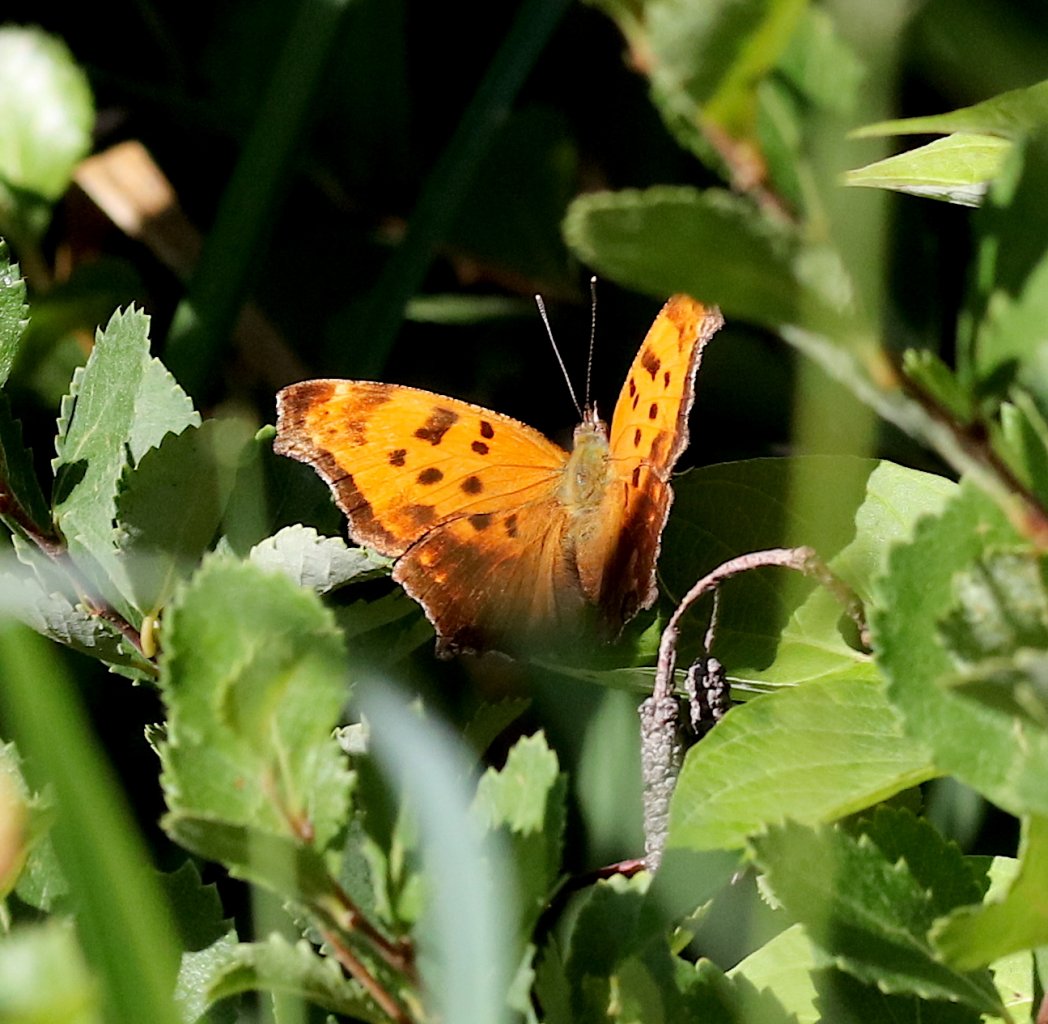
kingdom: Animalia
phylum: Arthropoda
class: Insecta
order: Lepidoptera
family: Nymphalidae
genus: Polygonia
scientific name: Polygonia comma
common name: Eastern Comma
